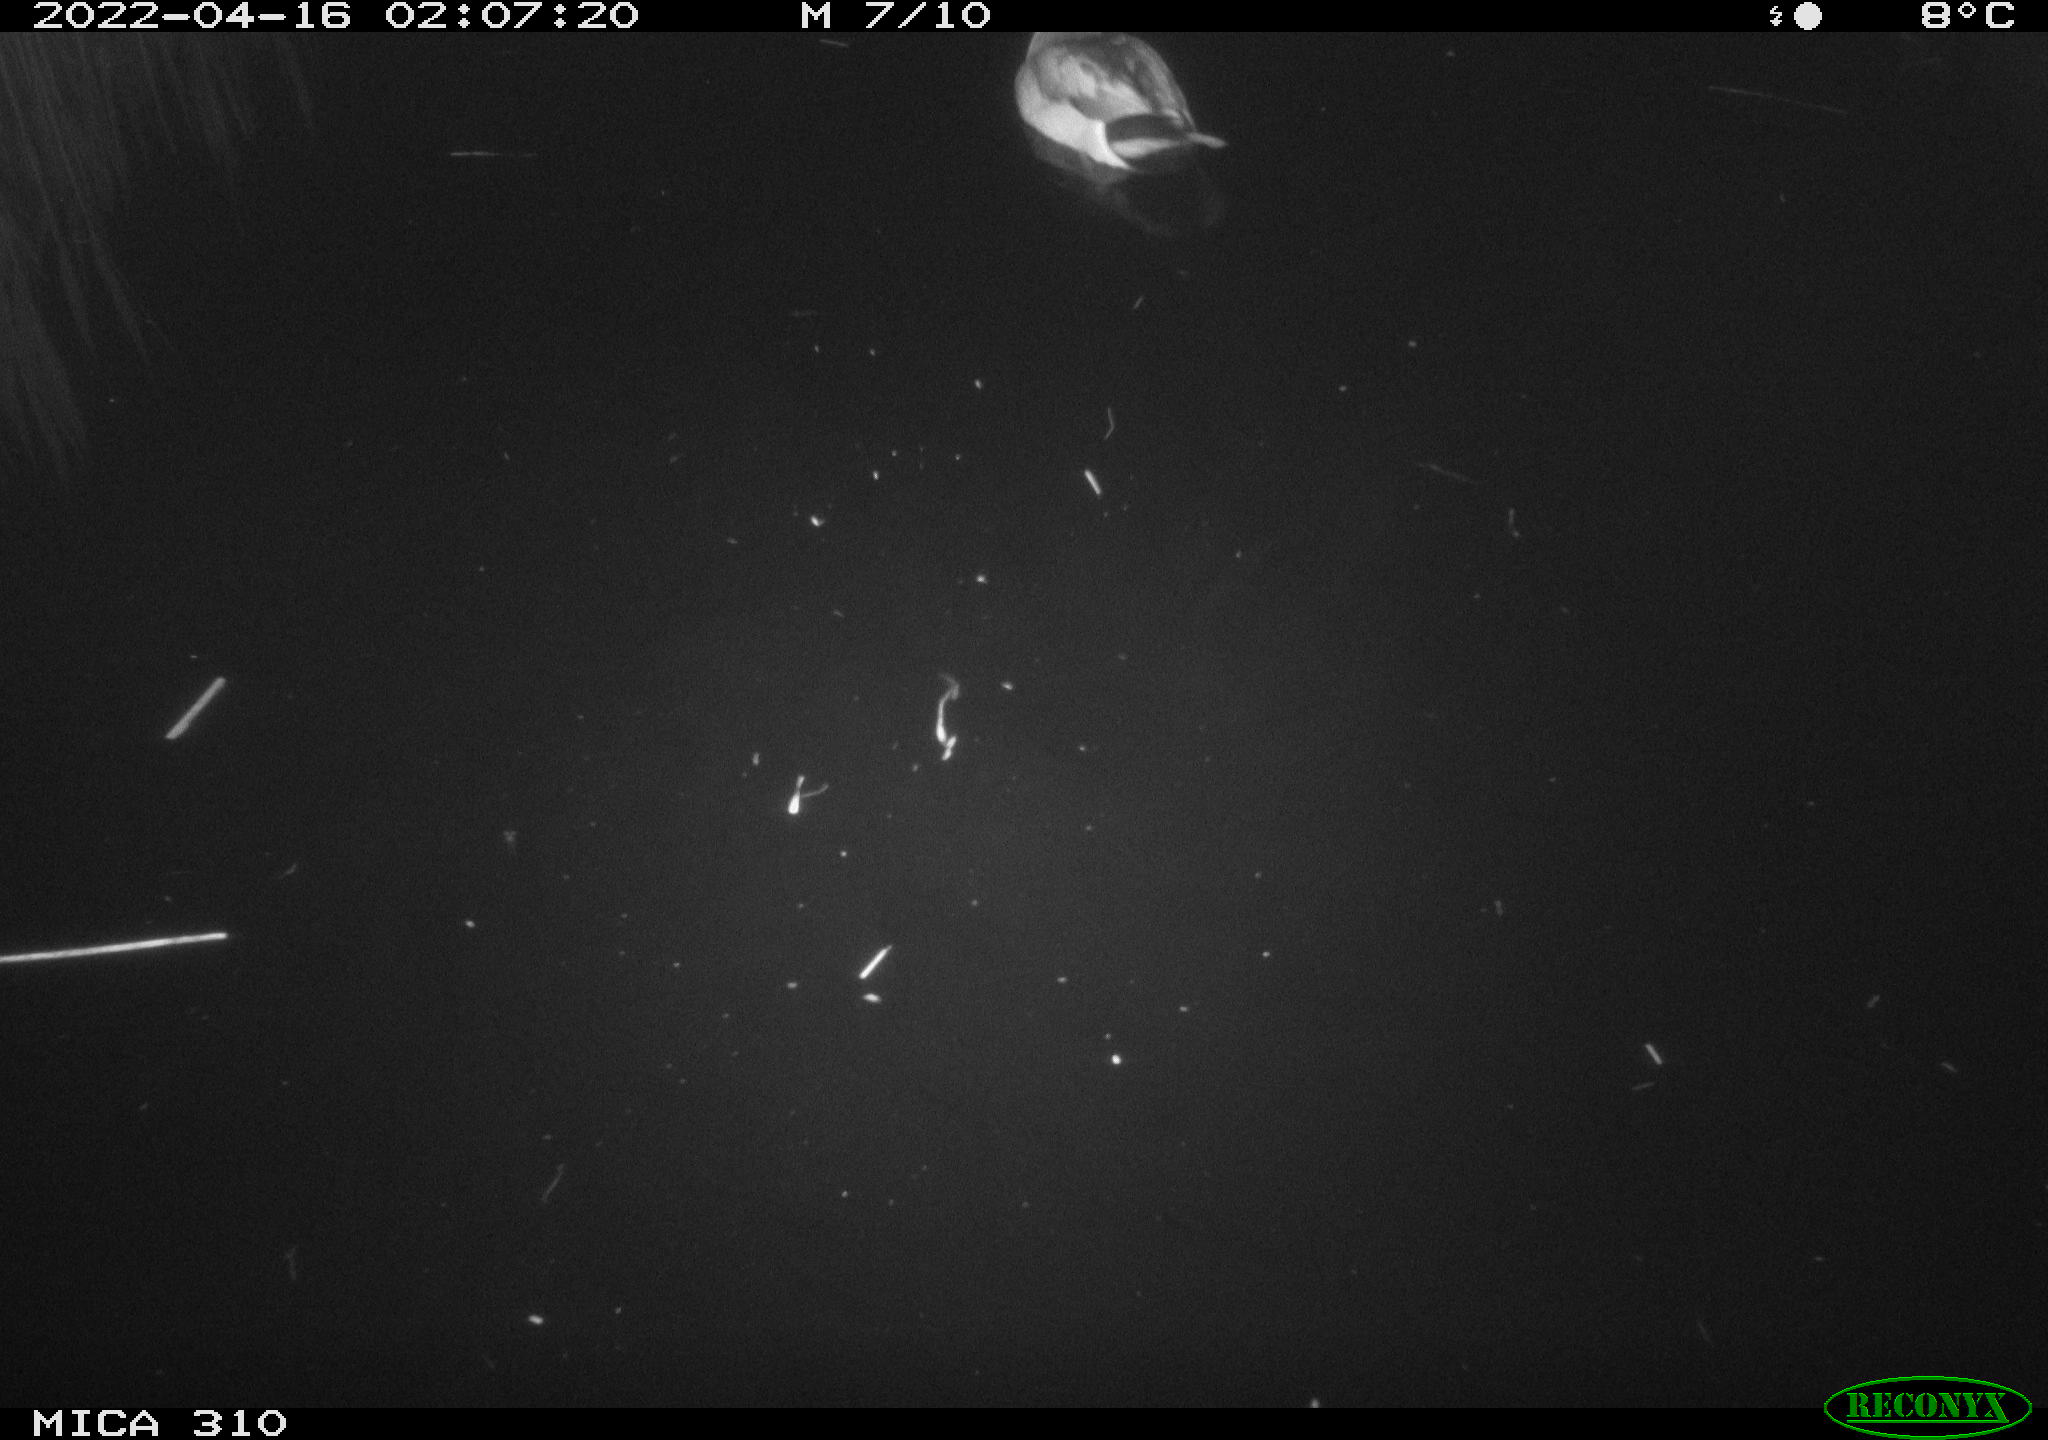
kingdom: Animalia
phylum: Chordata
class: Aves
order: Anseriformes
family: Anatidae
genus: Anas
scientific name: Anas platyrhynchos
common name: Mallard
